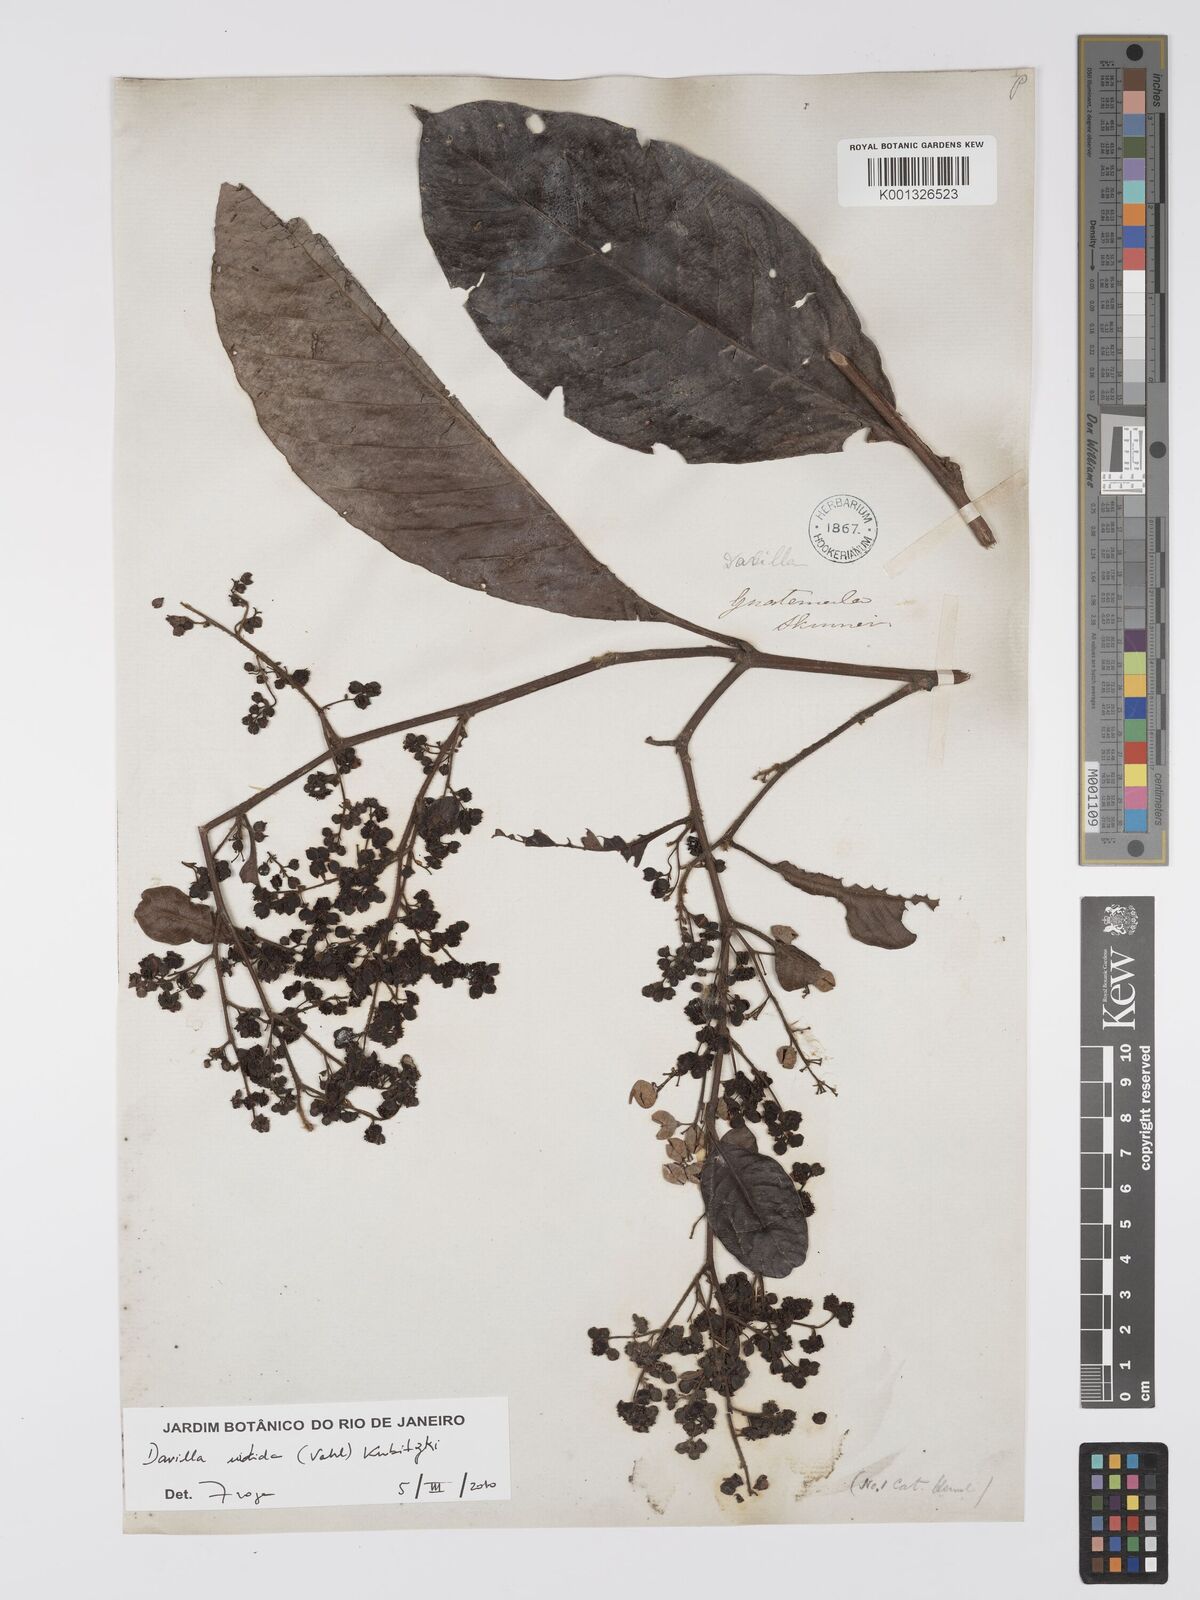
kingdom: Plantae
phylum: Tracheophyta
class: Magnoliopsida
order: Dilleniales
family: Dilleniaceae
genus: Davilla
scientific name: Davilla nitida
